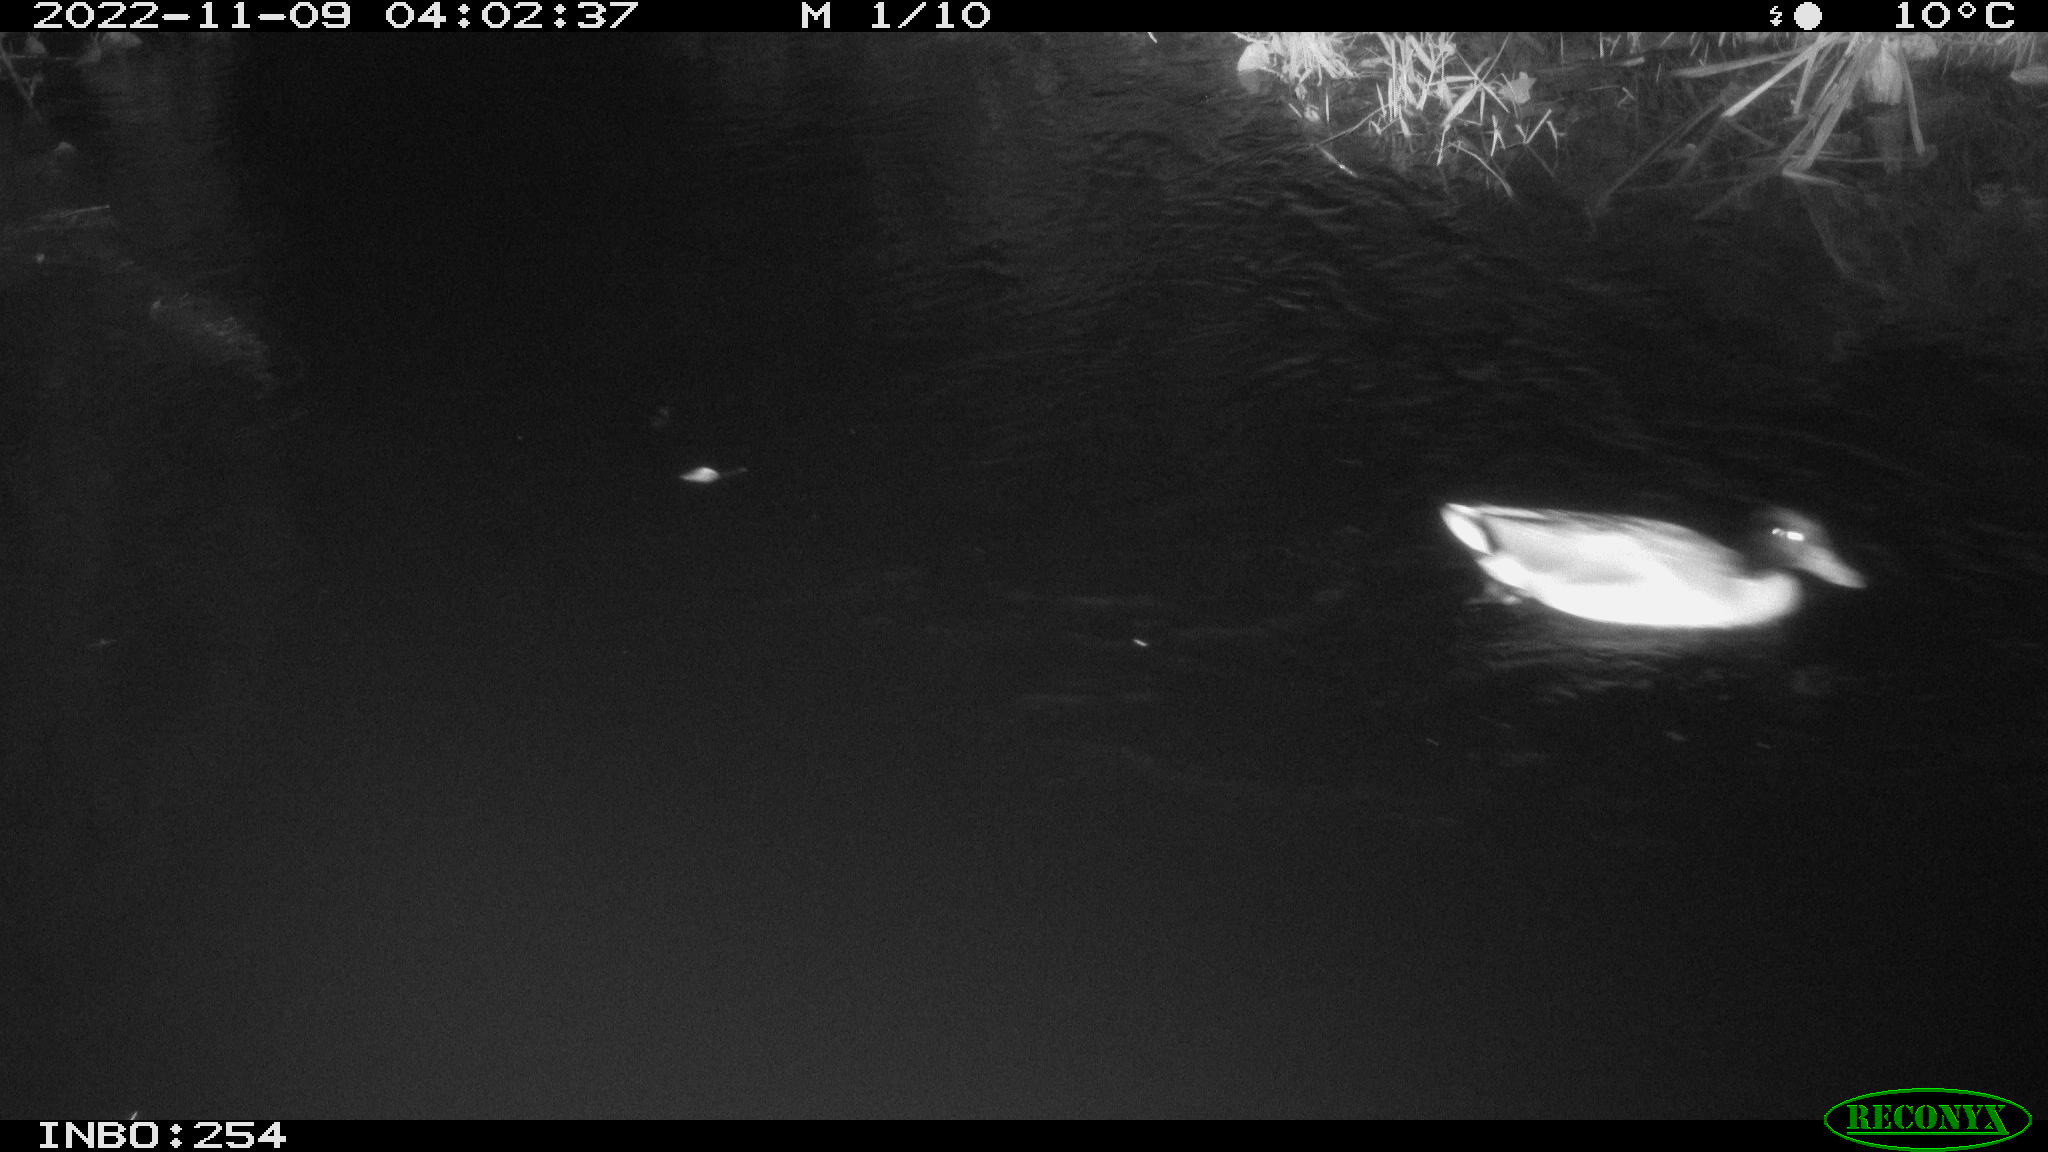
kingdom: Animalia
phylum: Chordata
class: Aves
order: Anseriformes
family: Anatidae
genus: Anas
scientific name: Anas
